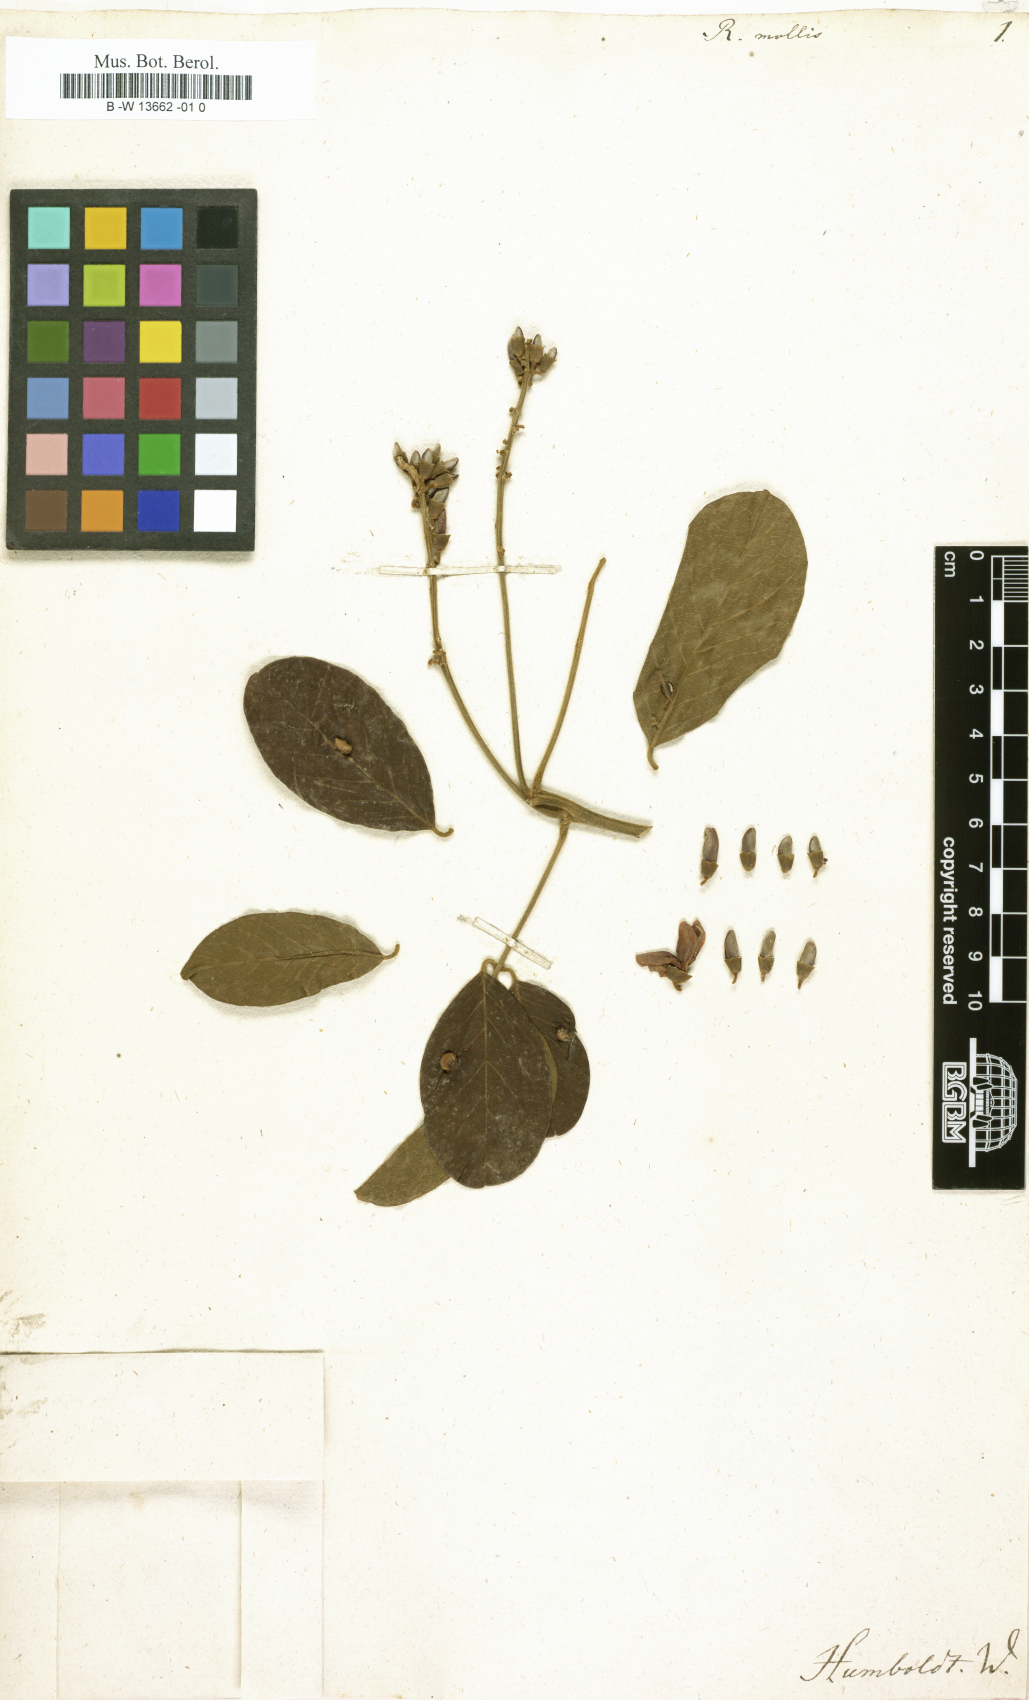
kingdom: Plantae
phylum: Tracheophyta
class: Magnoliopsida
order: Fabales
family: Fabaceae
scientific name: Fabaceae
